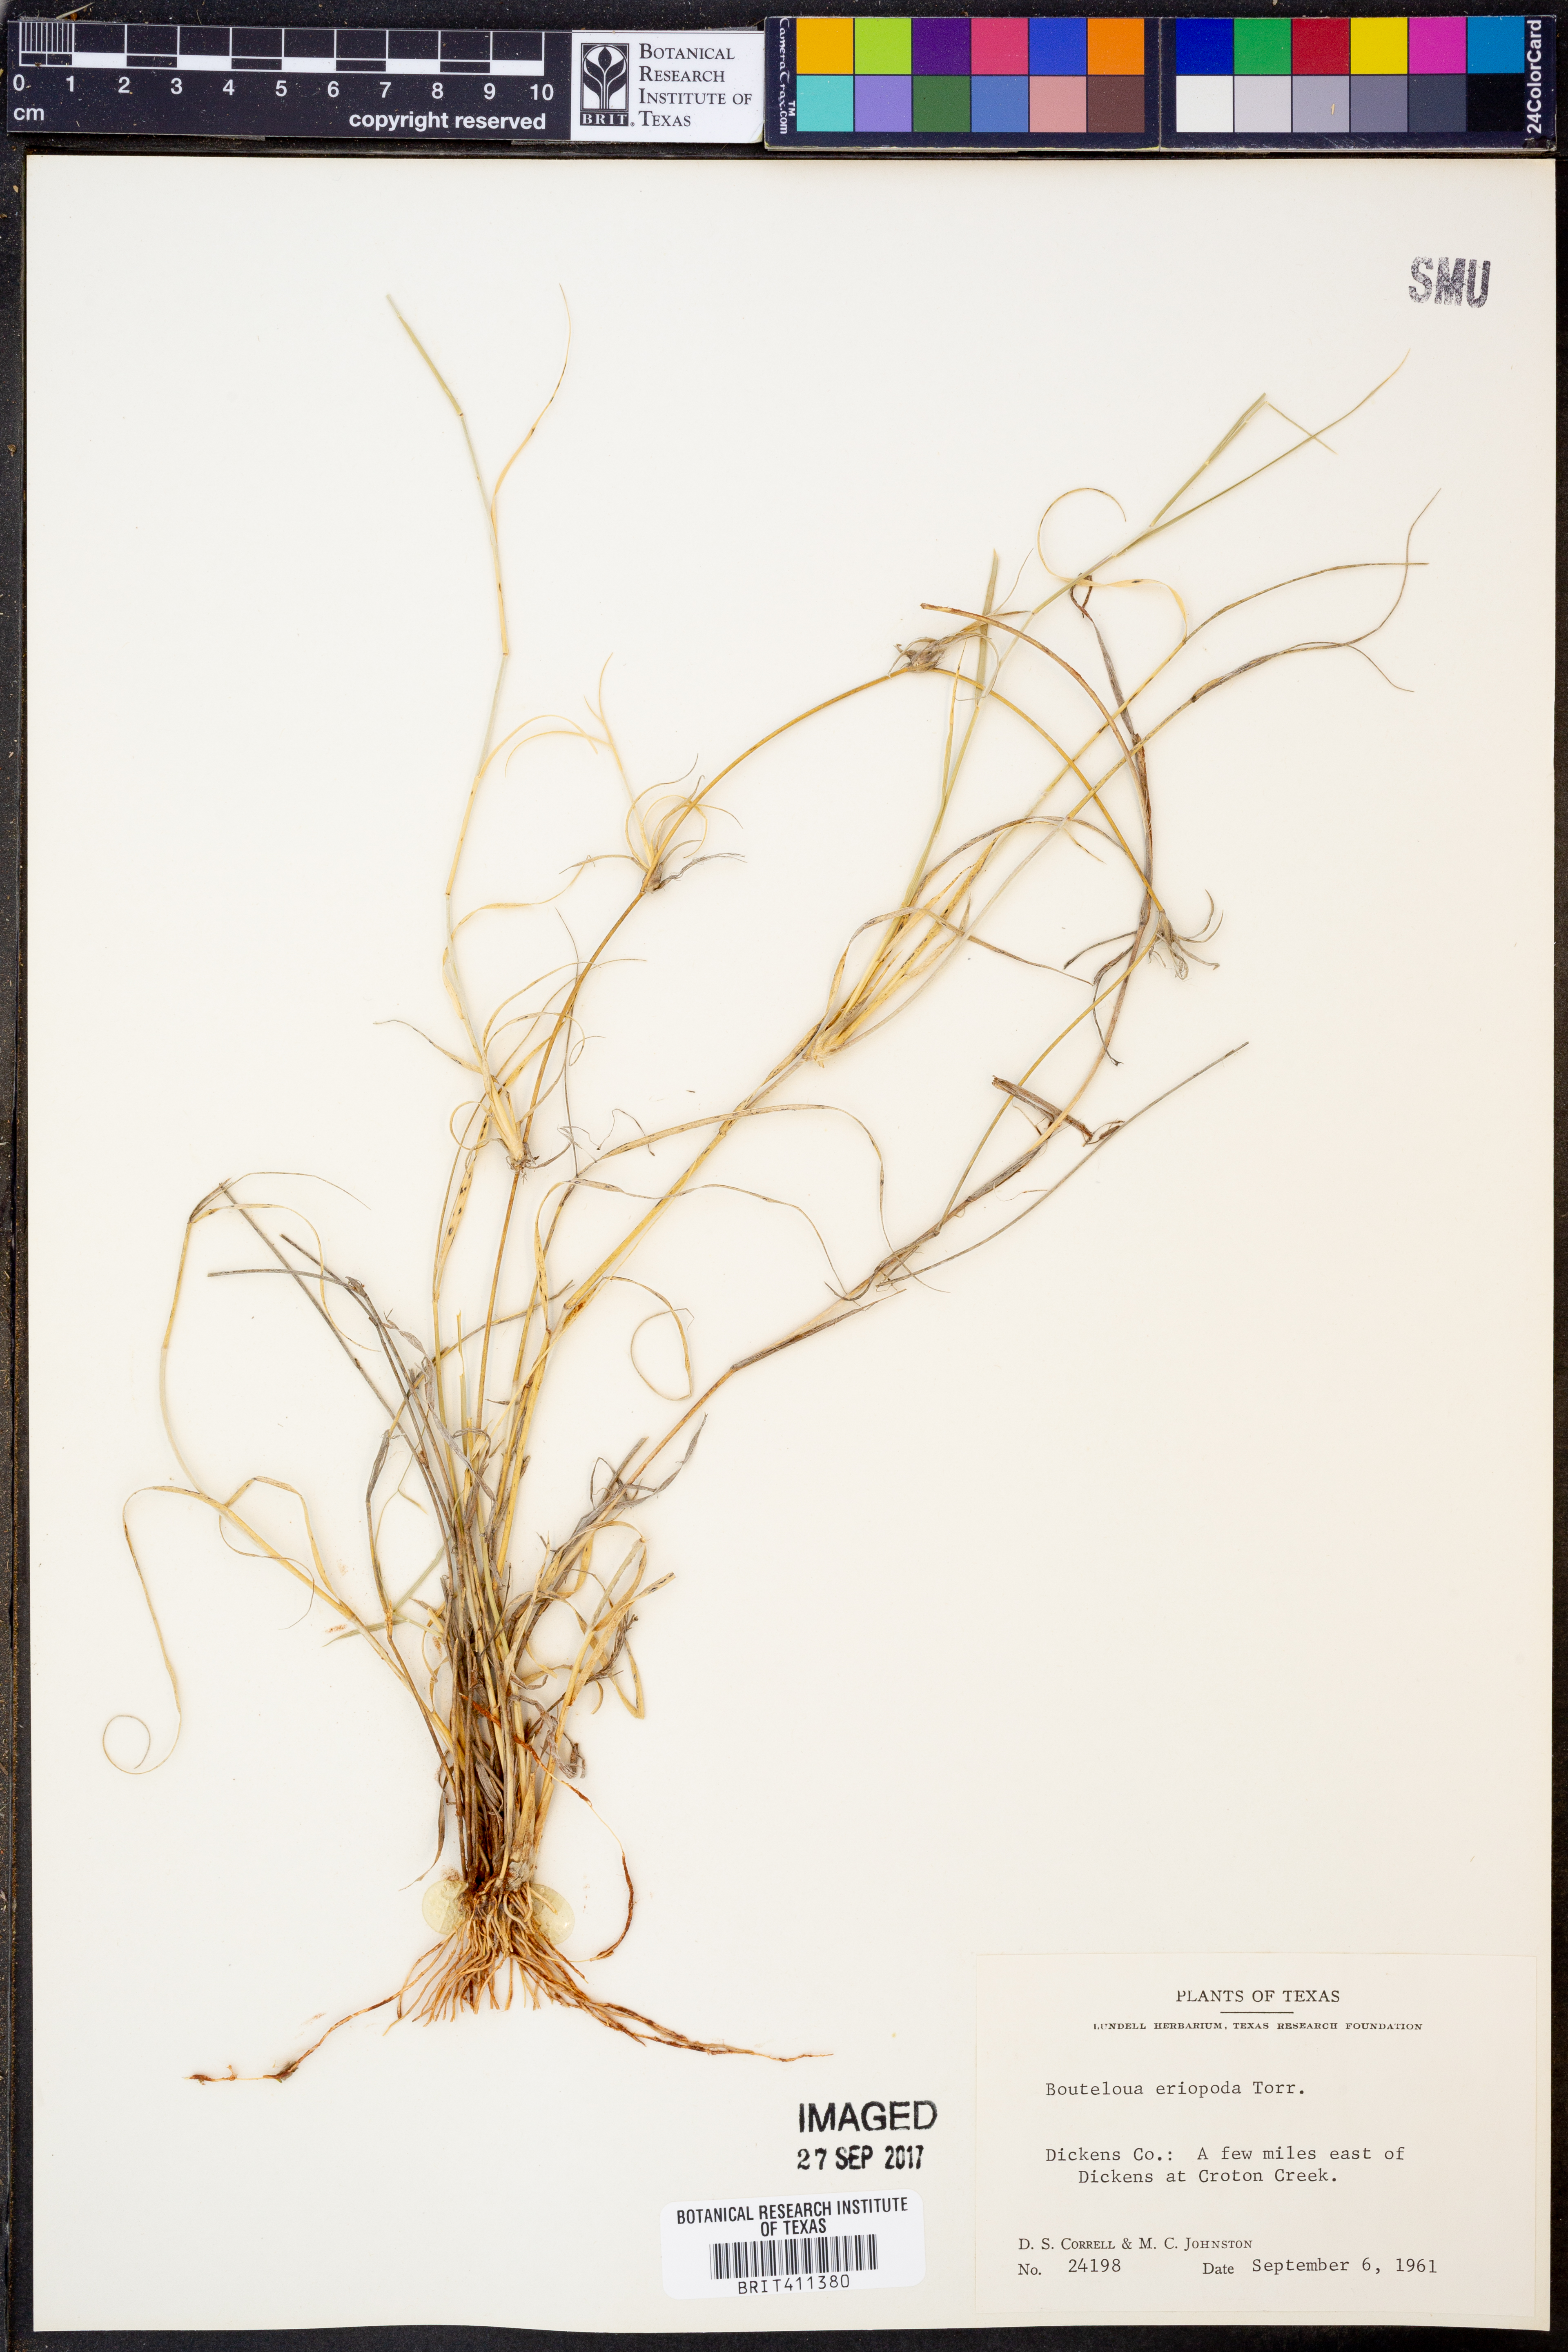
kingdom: Plantae
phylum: Tracheophyta
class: Liliopsida
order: Poales
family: Poaceae
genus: Bouteloua
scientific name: Bouteloua eriopoda
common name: Woolly foot grama
